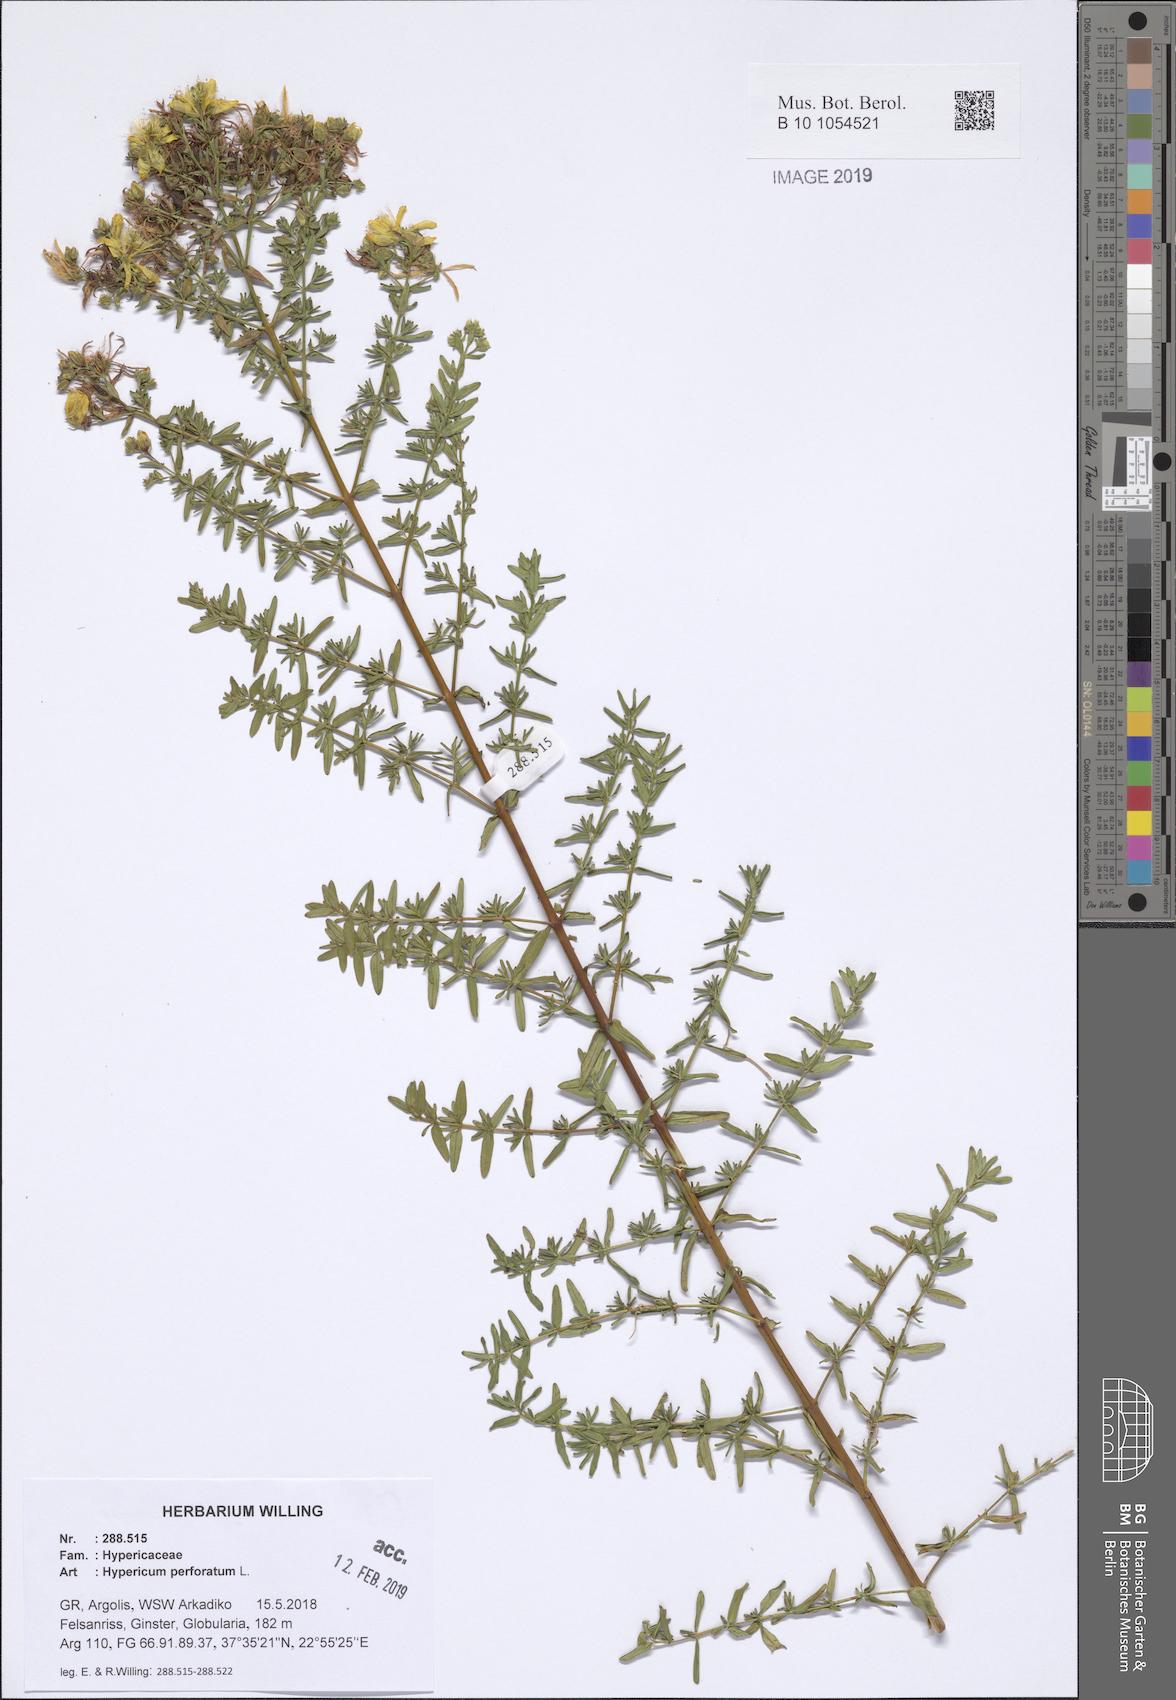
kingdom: Plantae
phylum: Tracheophyta
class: Magnoliopsida
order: Malpighiales
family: Hypericaceae
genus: Hypericum
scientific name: Hypericum perforatum
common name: Common st. johnswort
